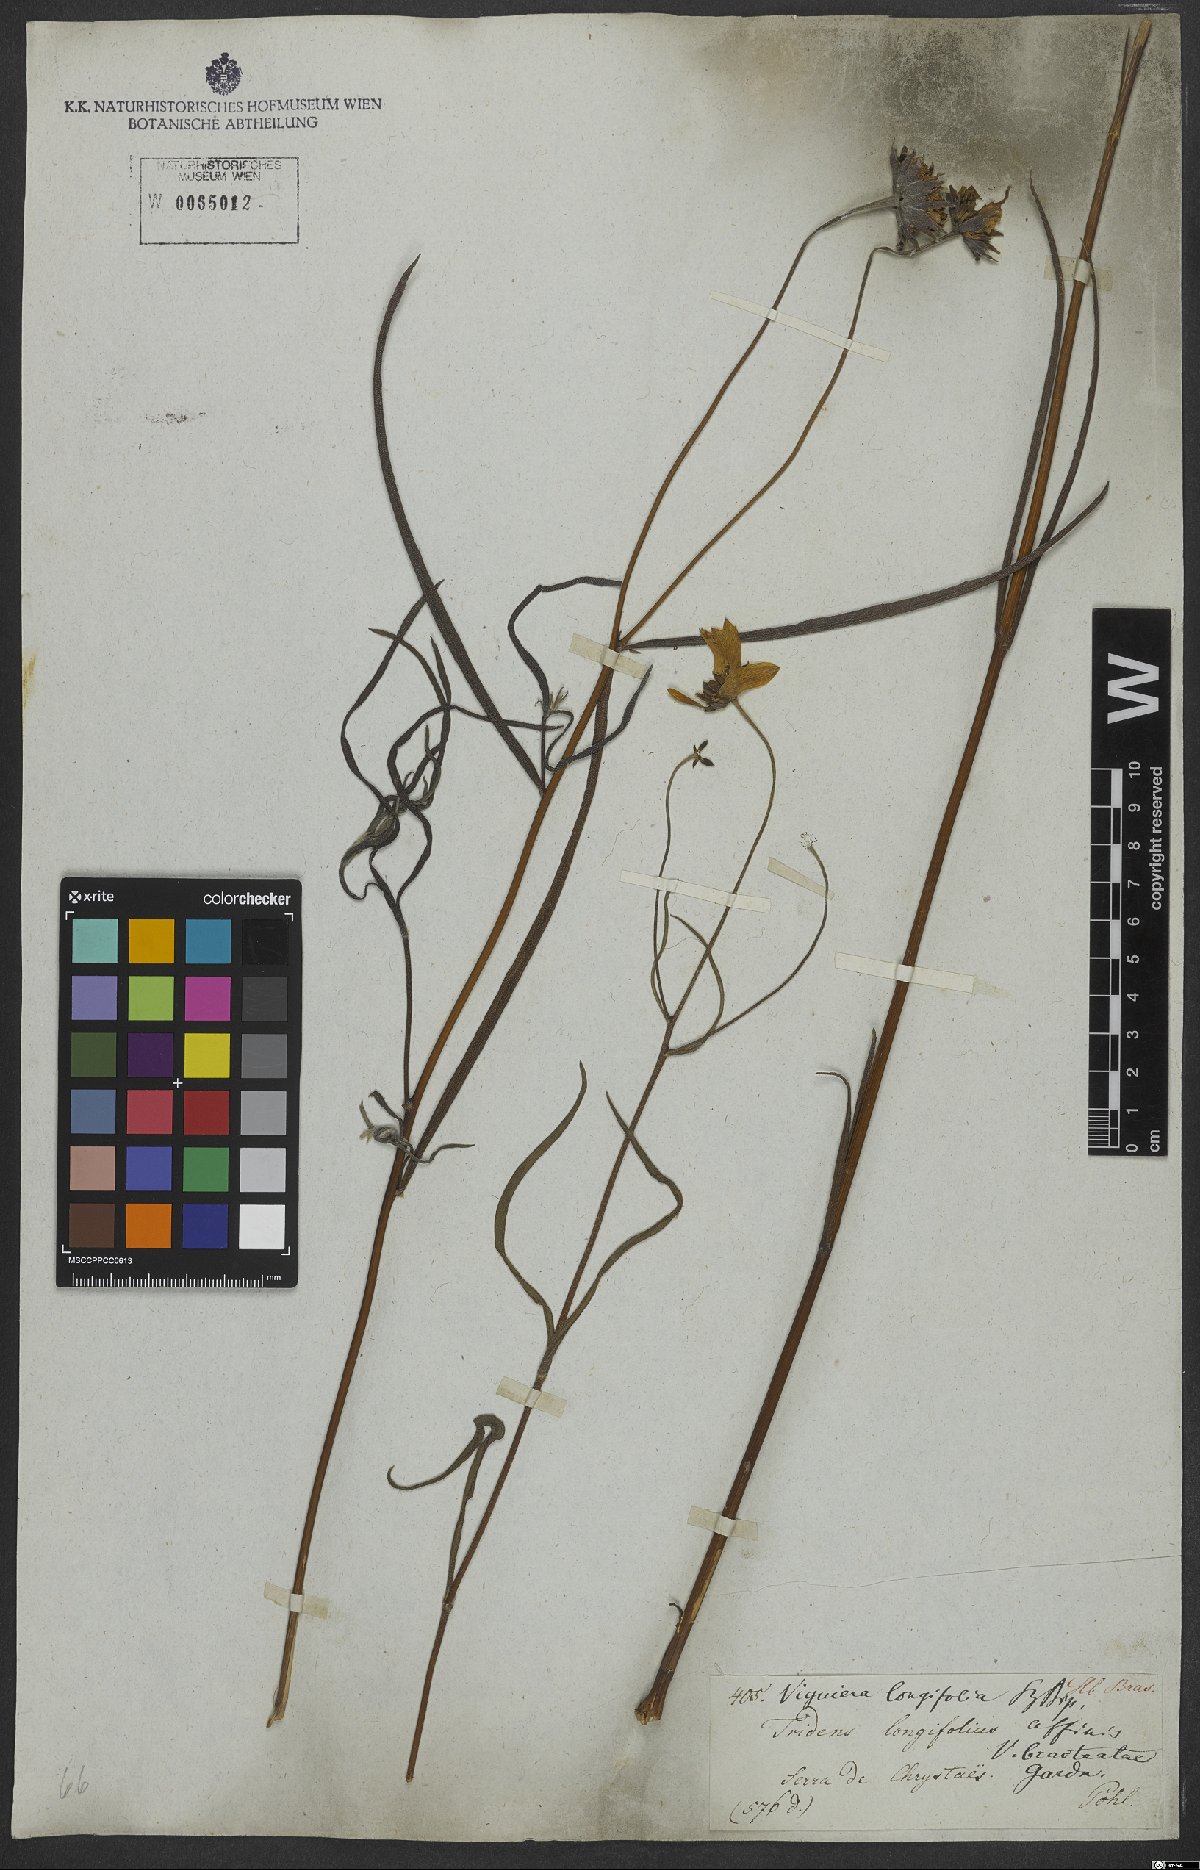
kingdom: Plantae
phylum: Tracheophyta
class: Magnoliopsida
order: Asterales
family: Asteraceae
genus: Aldama
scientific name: Aldama kunthiana
